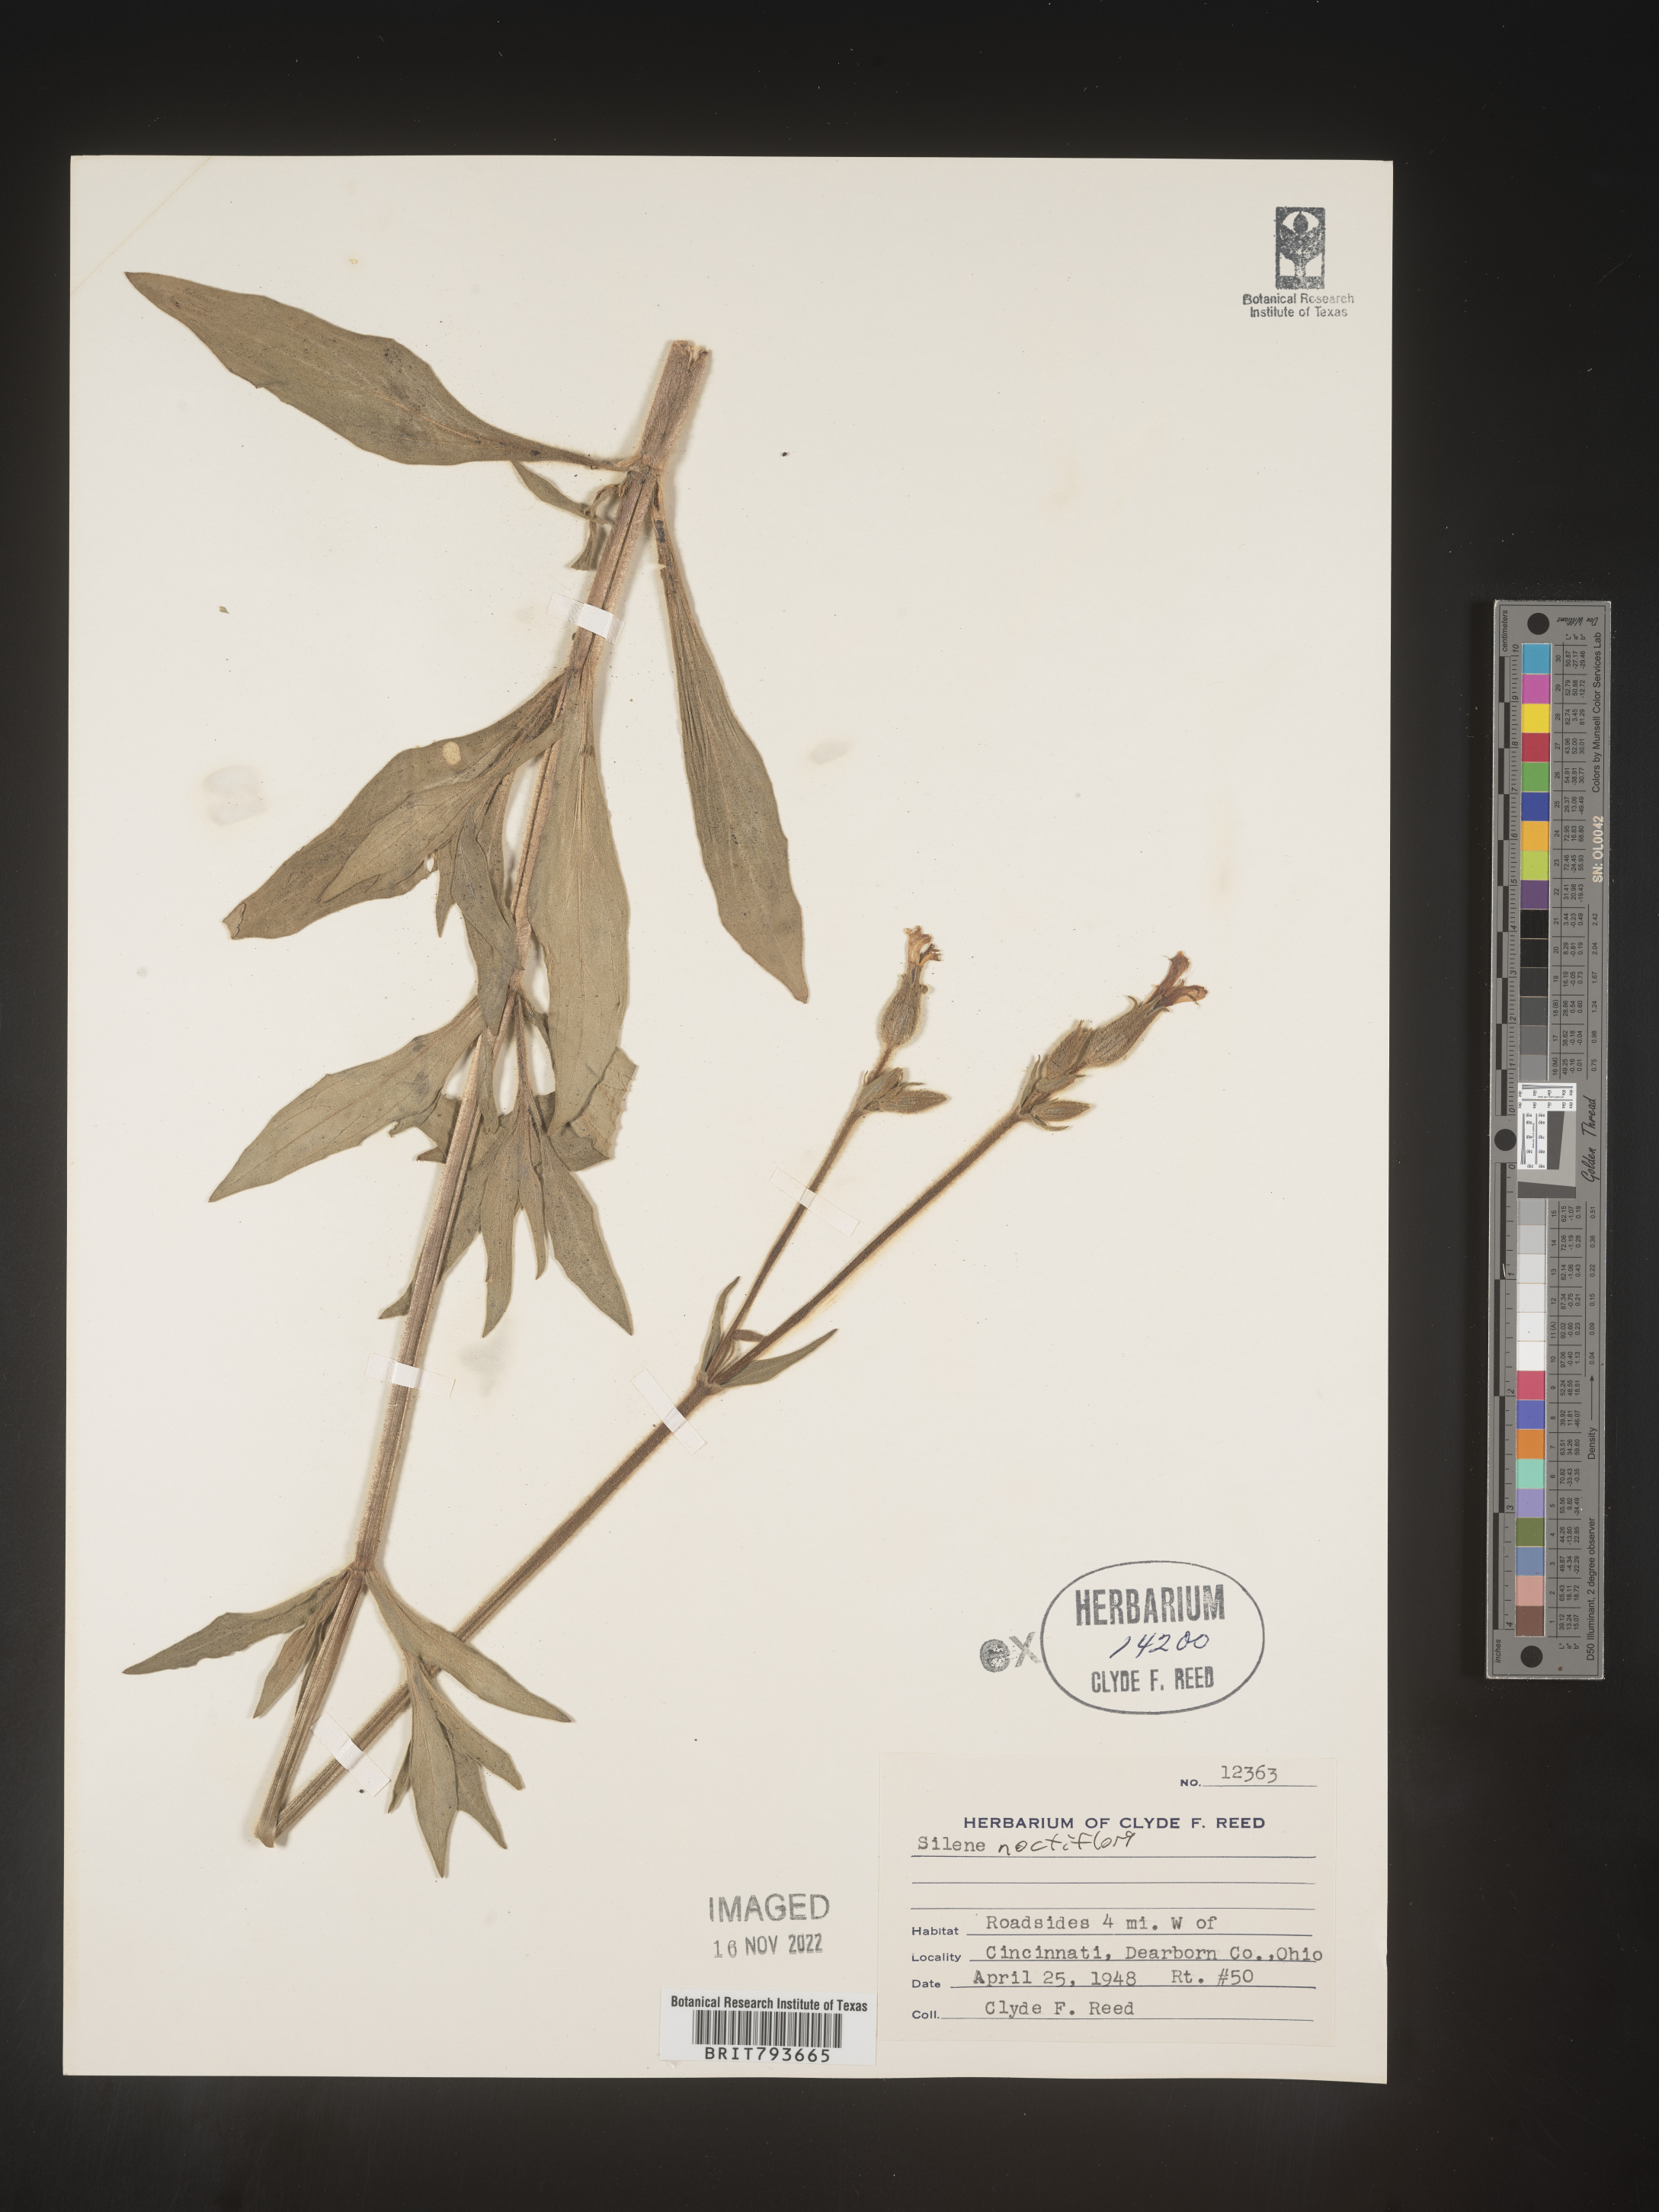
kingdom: Plantae
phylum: Tracheophyta
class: Magnoliopsida
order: Caryophyllales
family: Caryophyllaceae
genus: Silene
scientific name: Silene noctiflora
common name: Night-flowering catchfly
